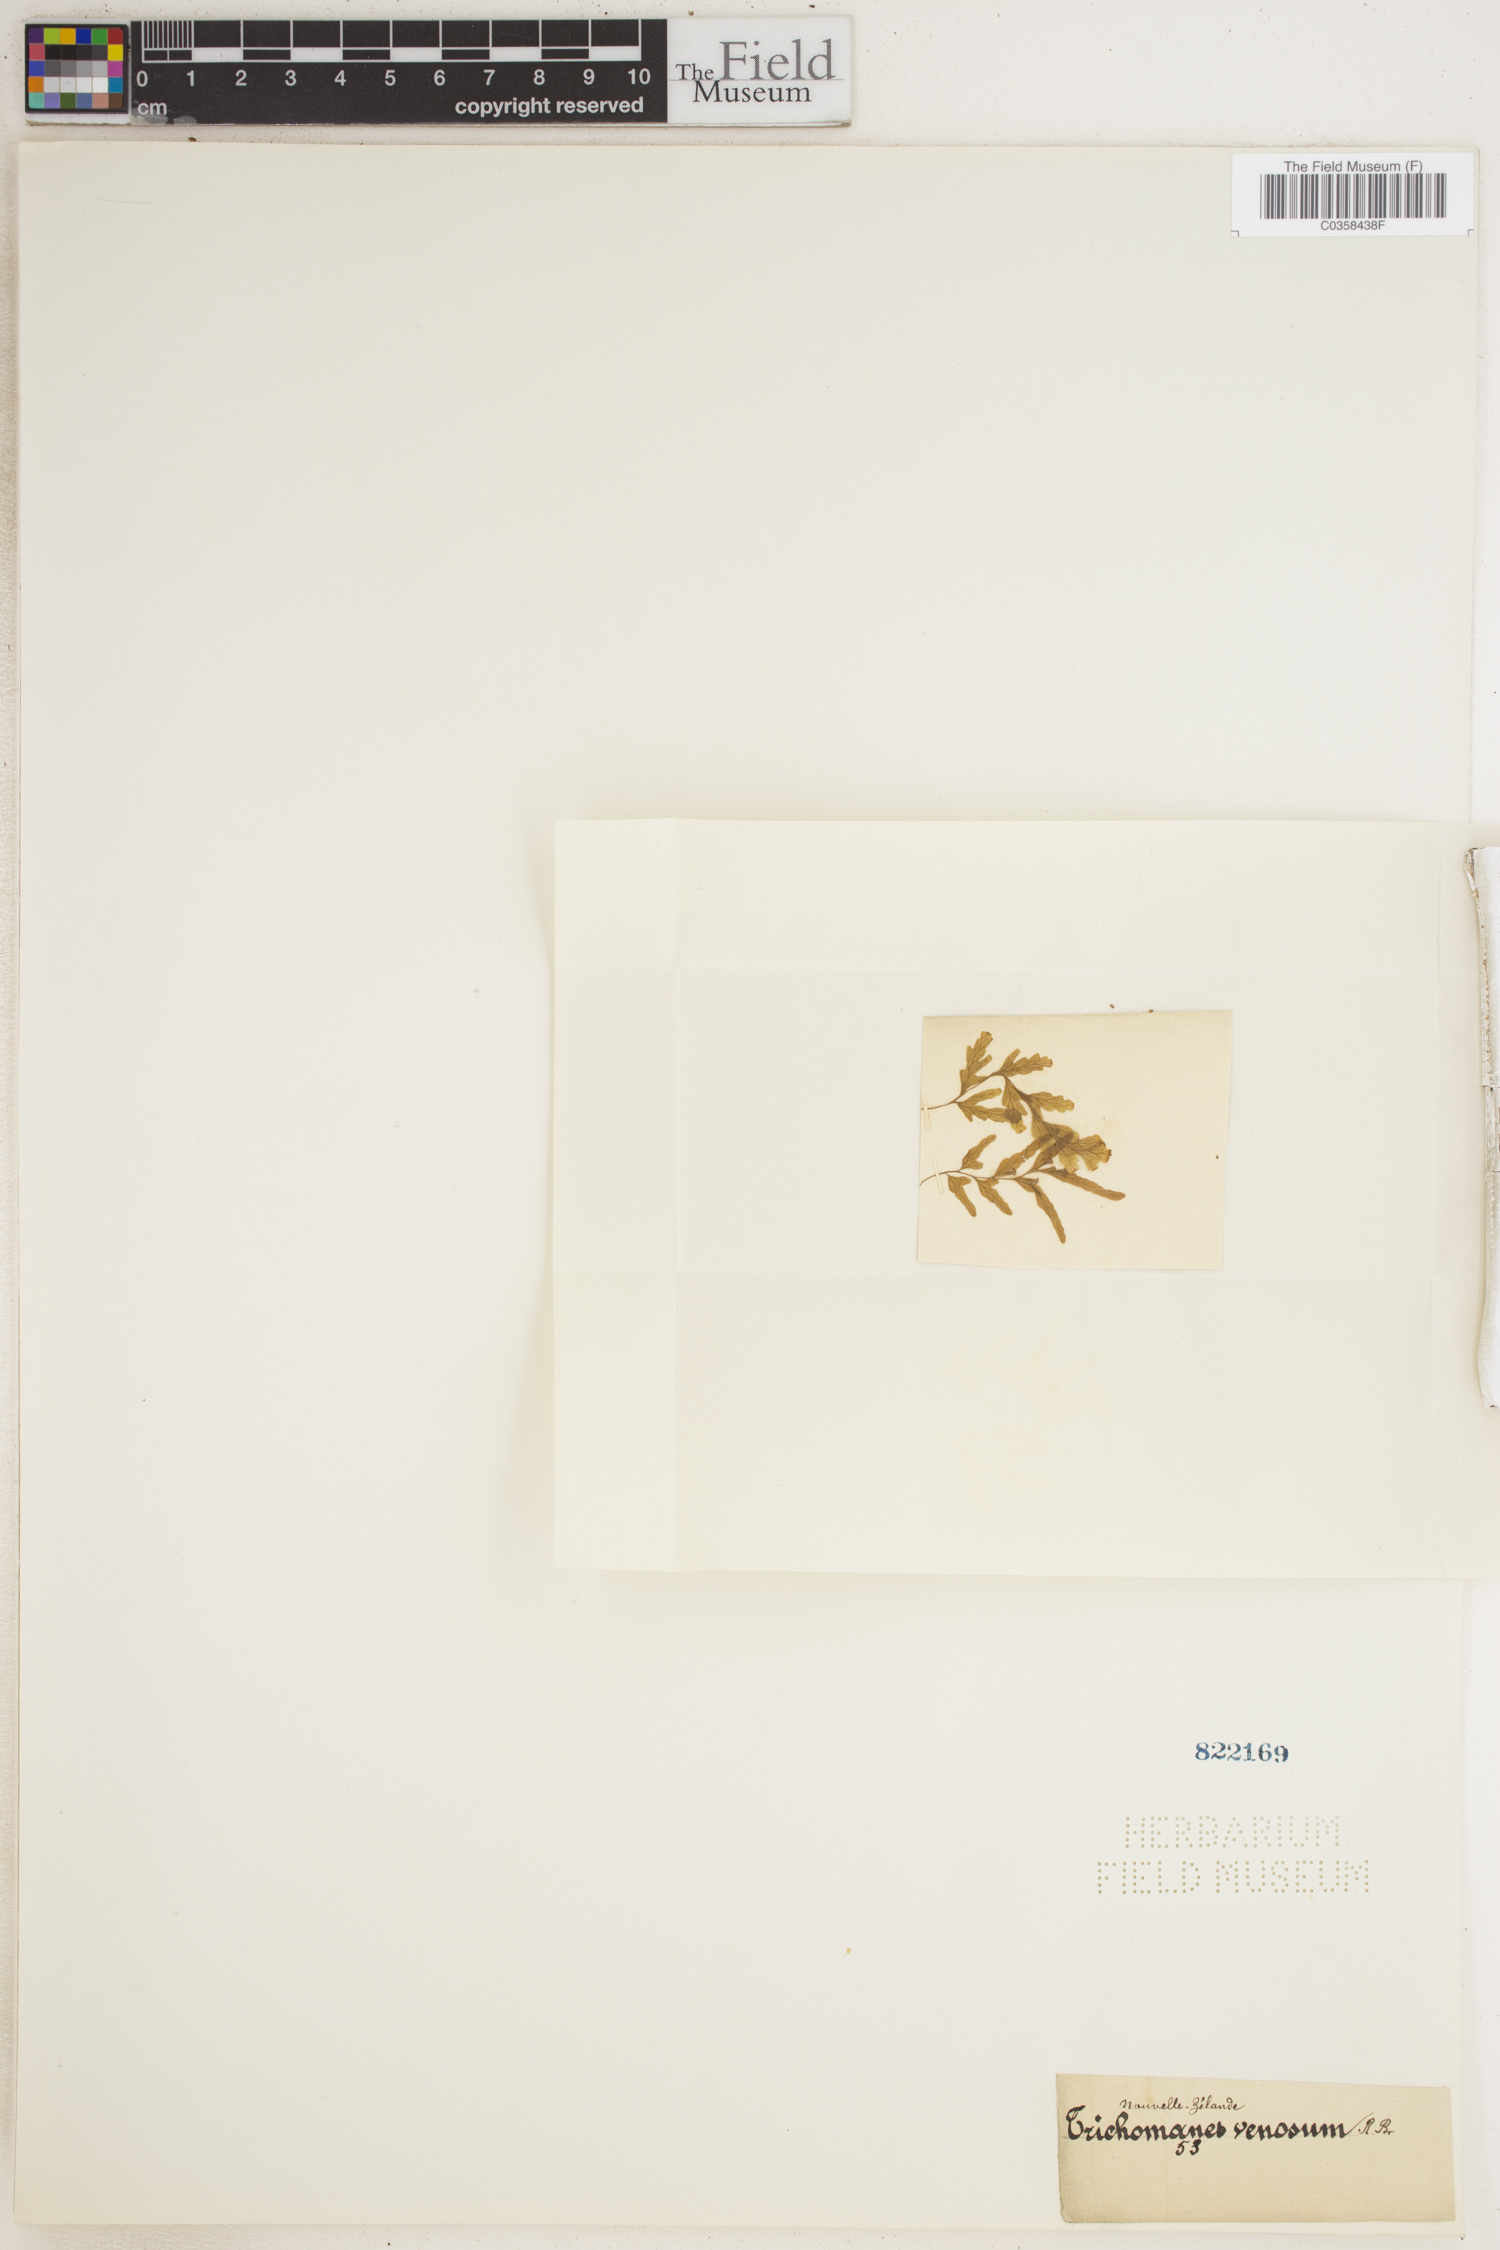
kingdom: Plantae
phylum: Tracheophyta
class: Polypodiopsida
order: Hymenophyllales
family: Hymenophyllaceae
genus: Polyphlebium
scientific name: Polyphlebium venosum
